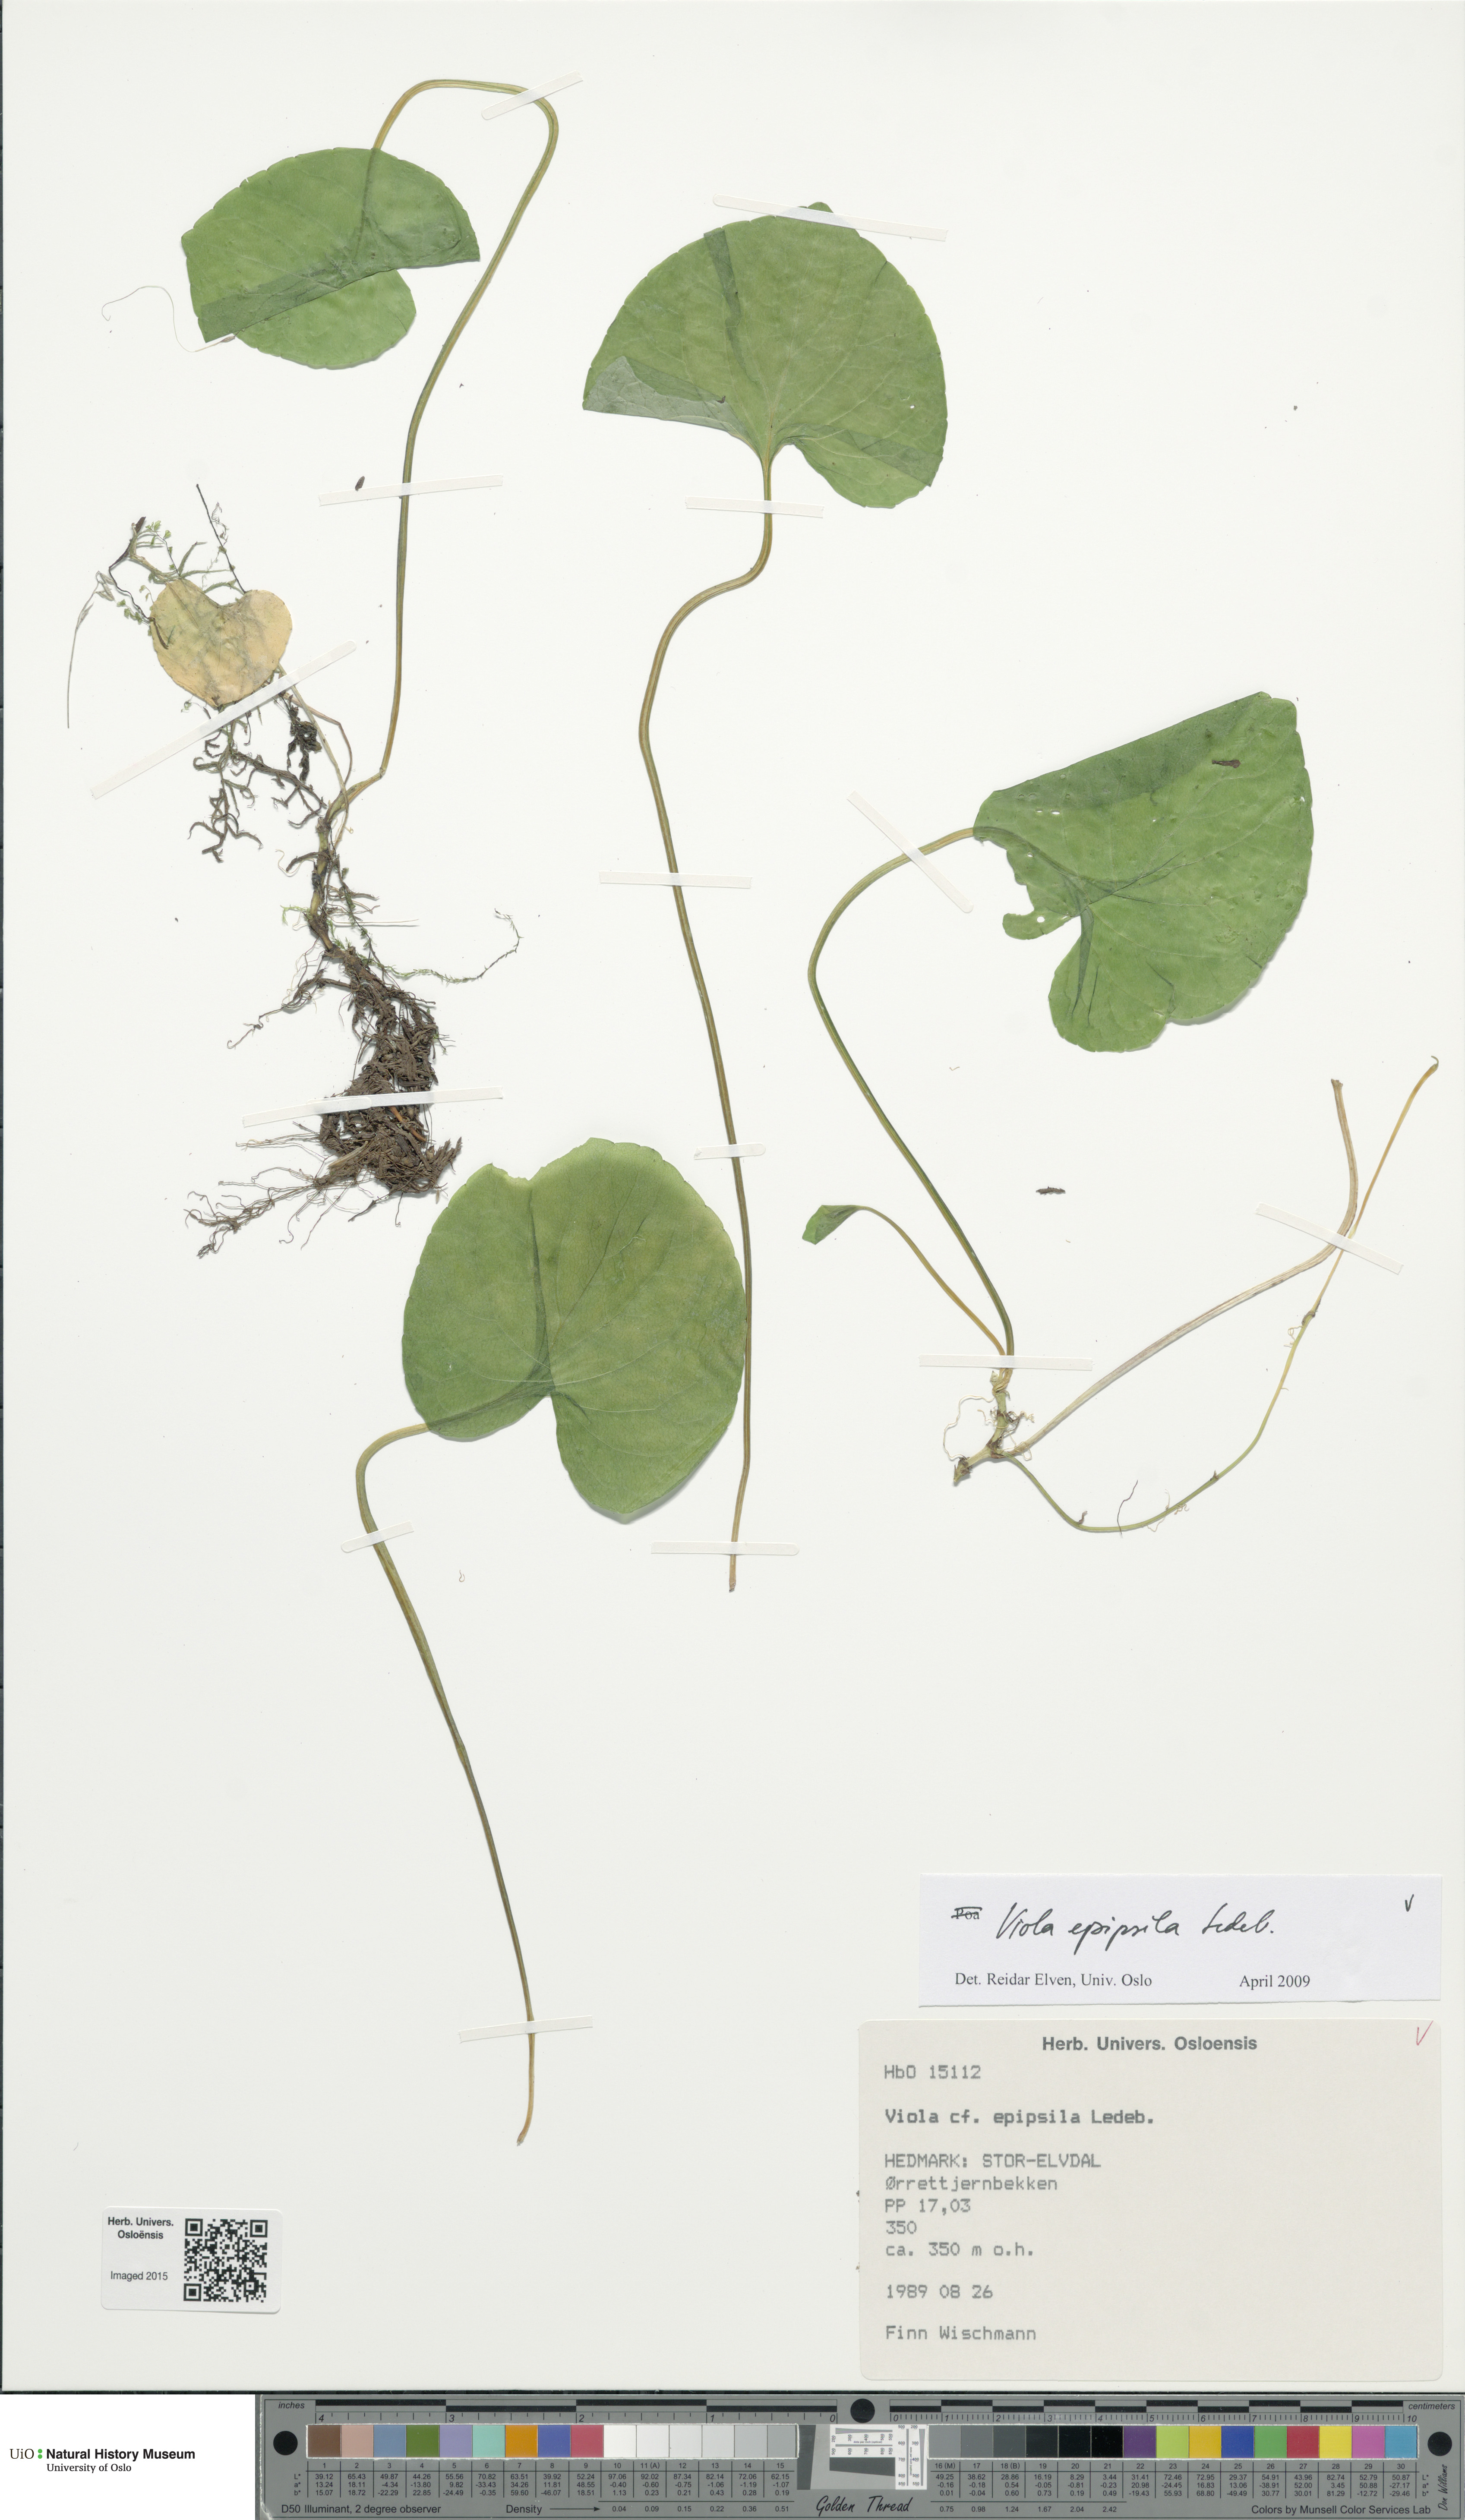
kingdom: Plantae
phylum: Tracheophyta
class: Magnoliopsida
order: Malpighiales
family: Violaceae
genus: Viola
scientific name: Viola epipsila
